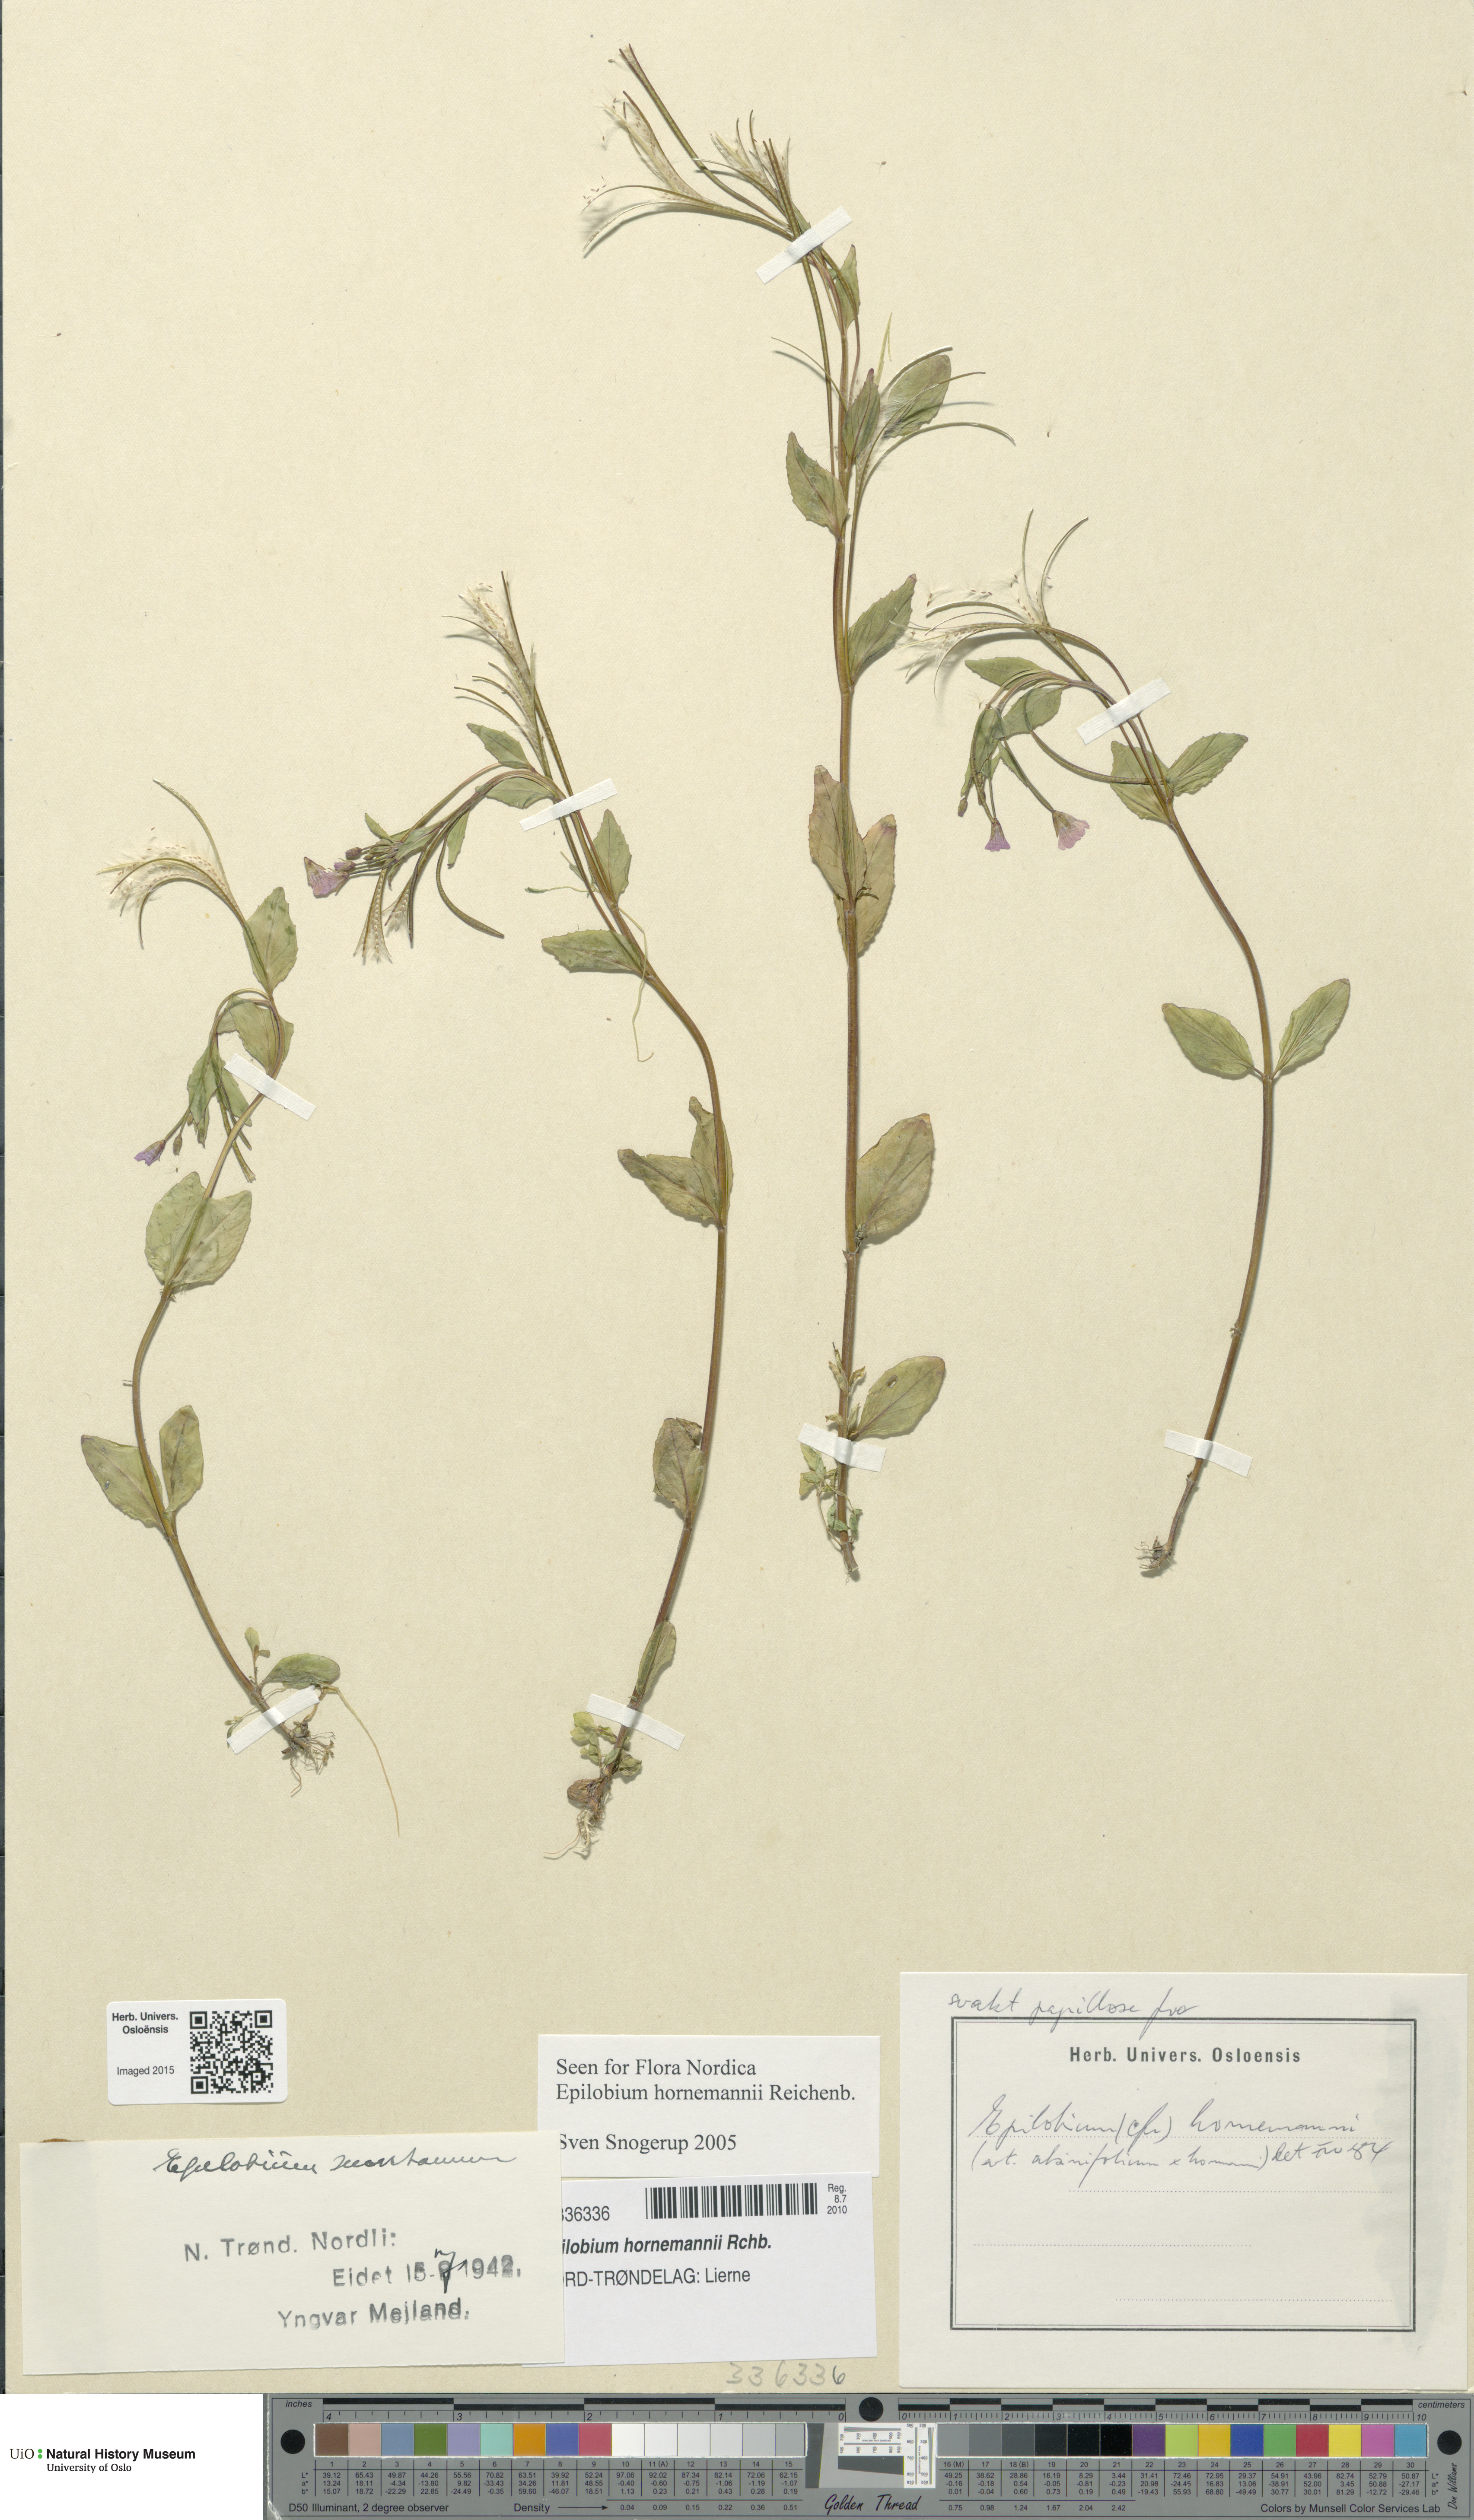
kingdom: Plantae
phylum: Tracheophyta
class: Magnoliopsida
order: Myrtales
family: Onagraceae
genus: Epilobium
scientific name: Epilobium hornemannii
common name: Hornemann's willowherb
